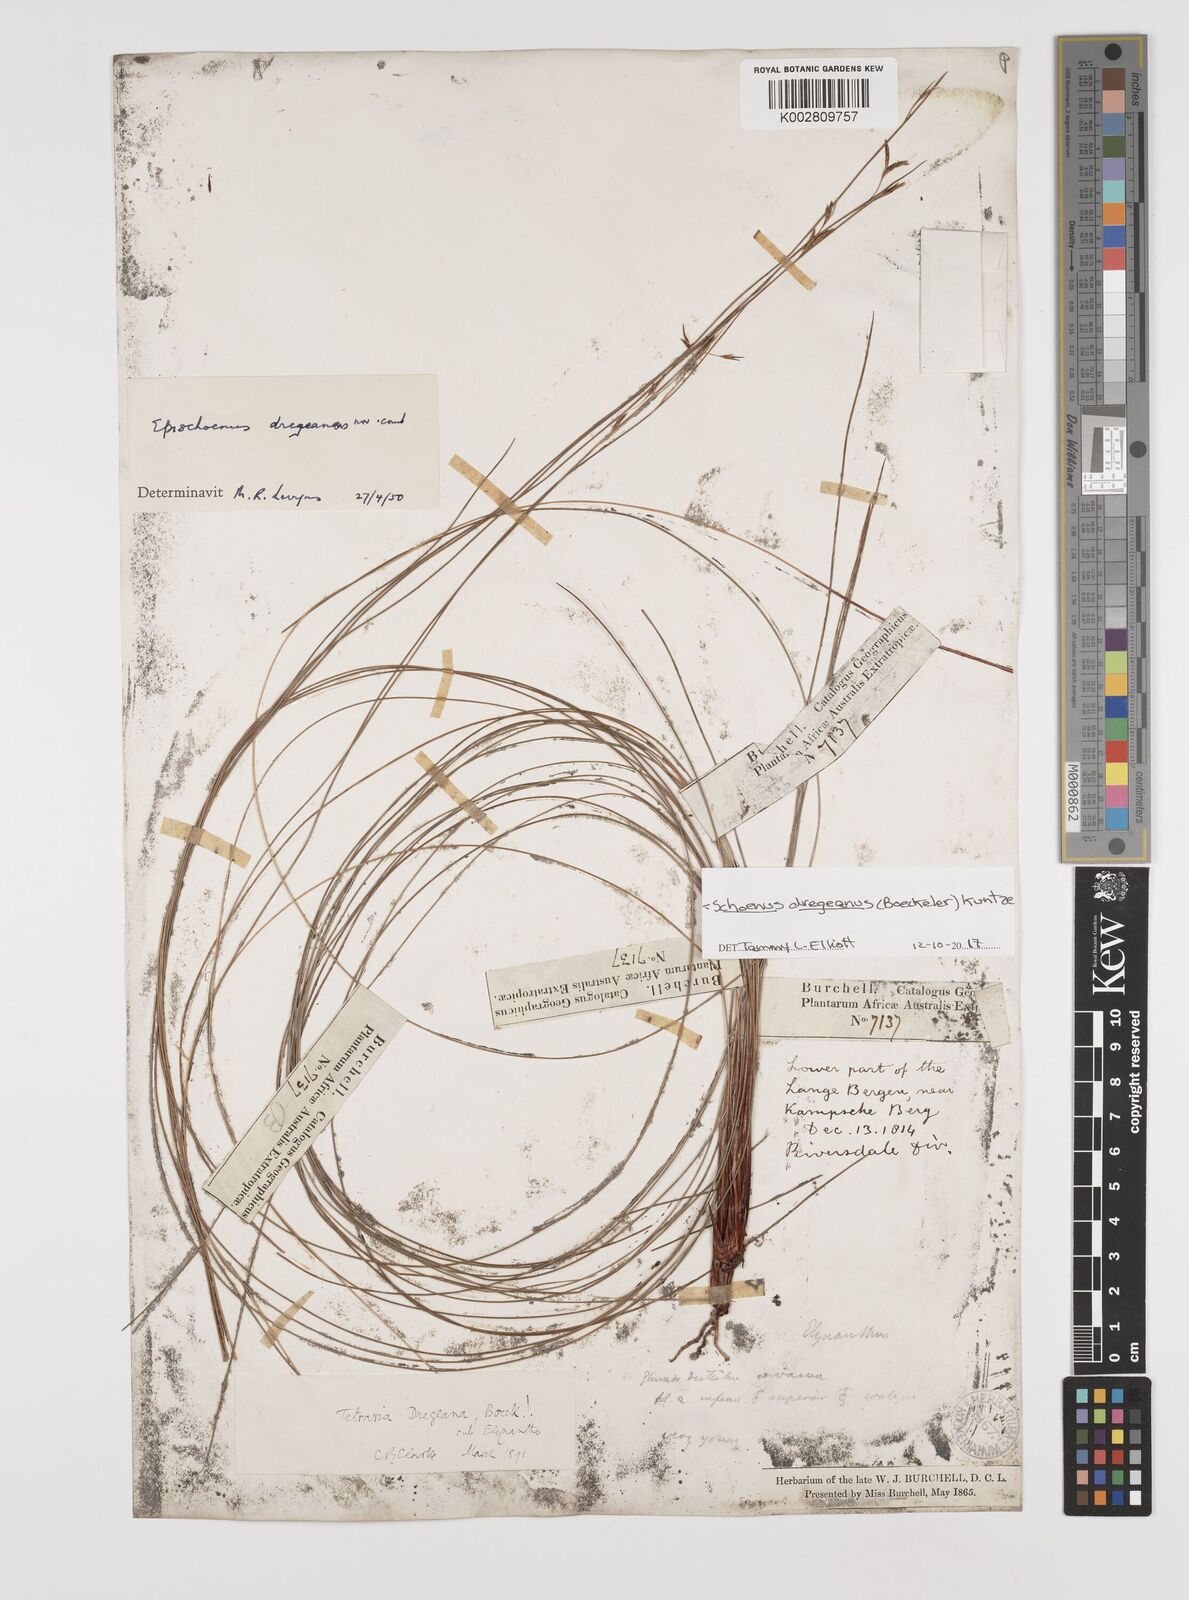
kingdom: Plantae
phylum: Tracheophyta
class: Liliopsida
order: Poales
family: Cyperaceae
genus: Schoenus
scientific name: Schoenus dregeanus
